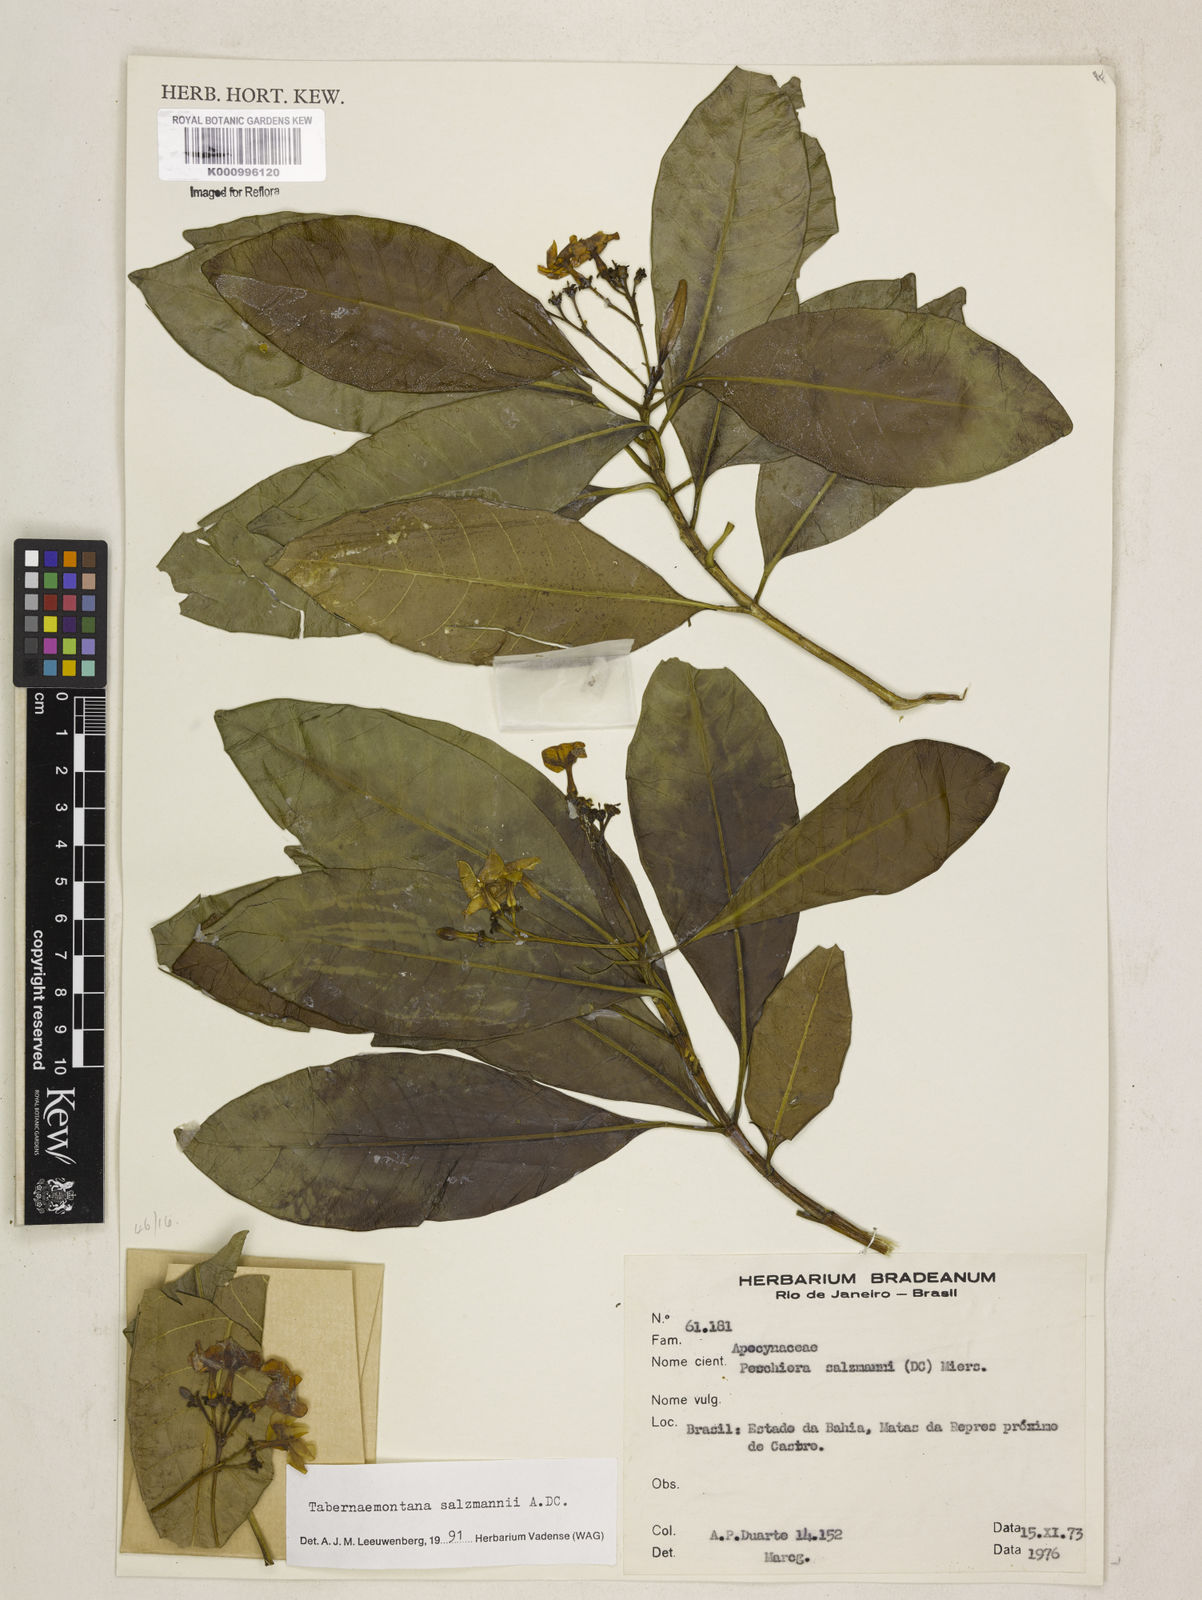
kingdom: Plantae
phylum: Tracheophyta
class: Magnoliopsida
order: Gentianales
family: Apocynaceae
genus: Tabernaemontana
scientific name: Tabernaemontana salzmannii
